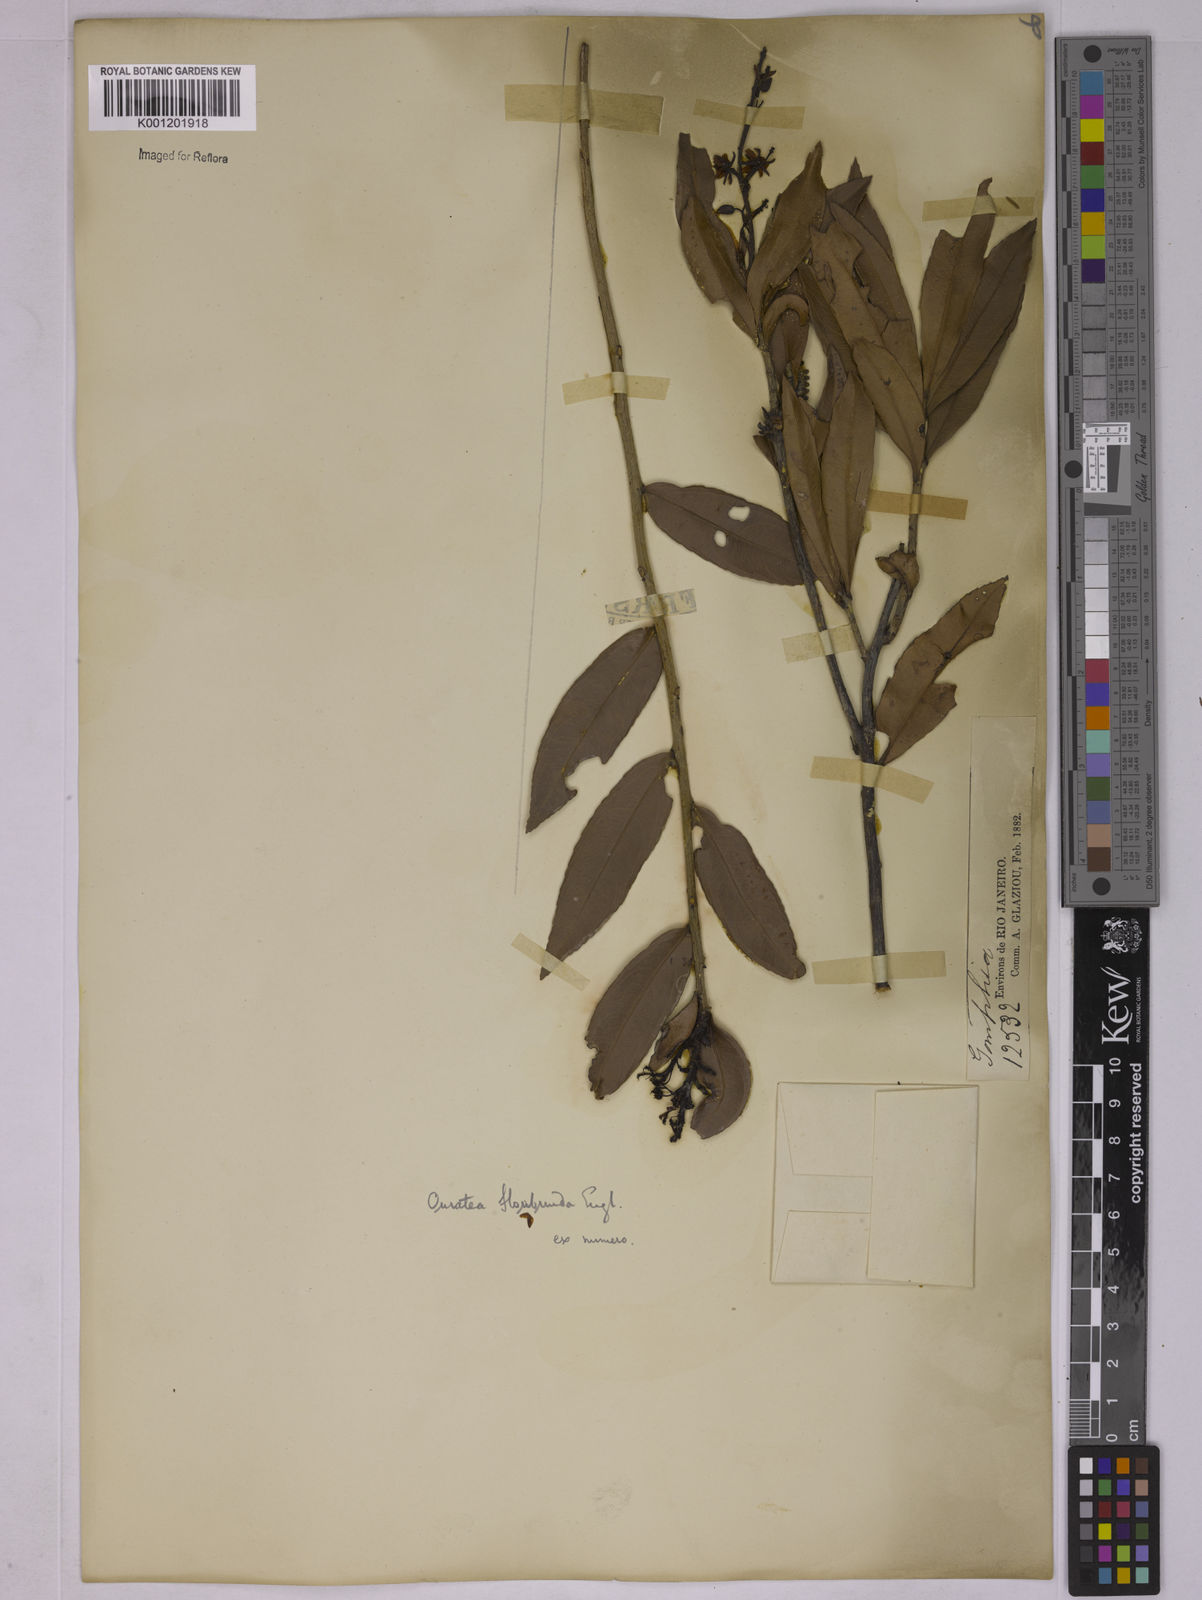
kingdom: Plantae
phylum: Tracheophyta
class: Magnoliopsida
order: Malpighiales
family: Ochnaceae
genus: Ouratea
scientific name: Ouratea floribunda
